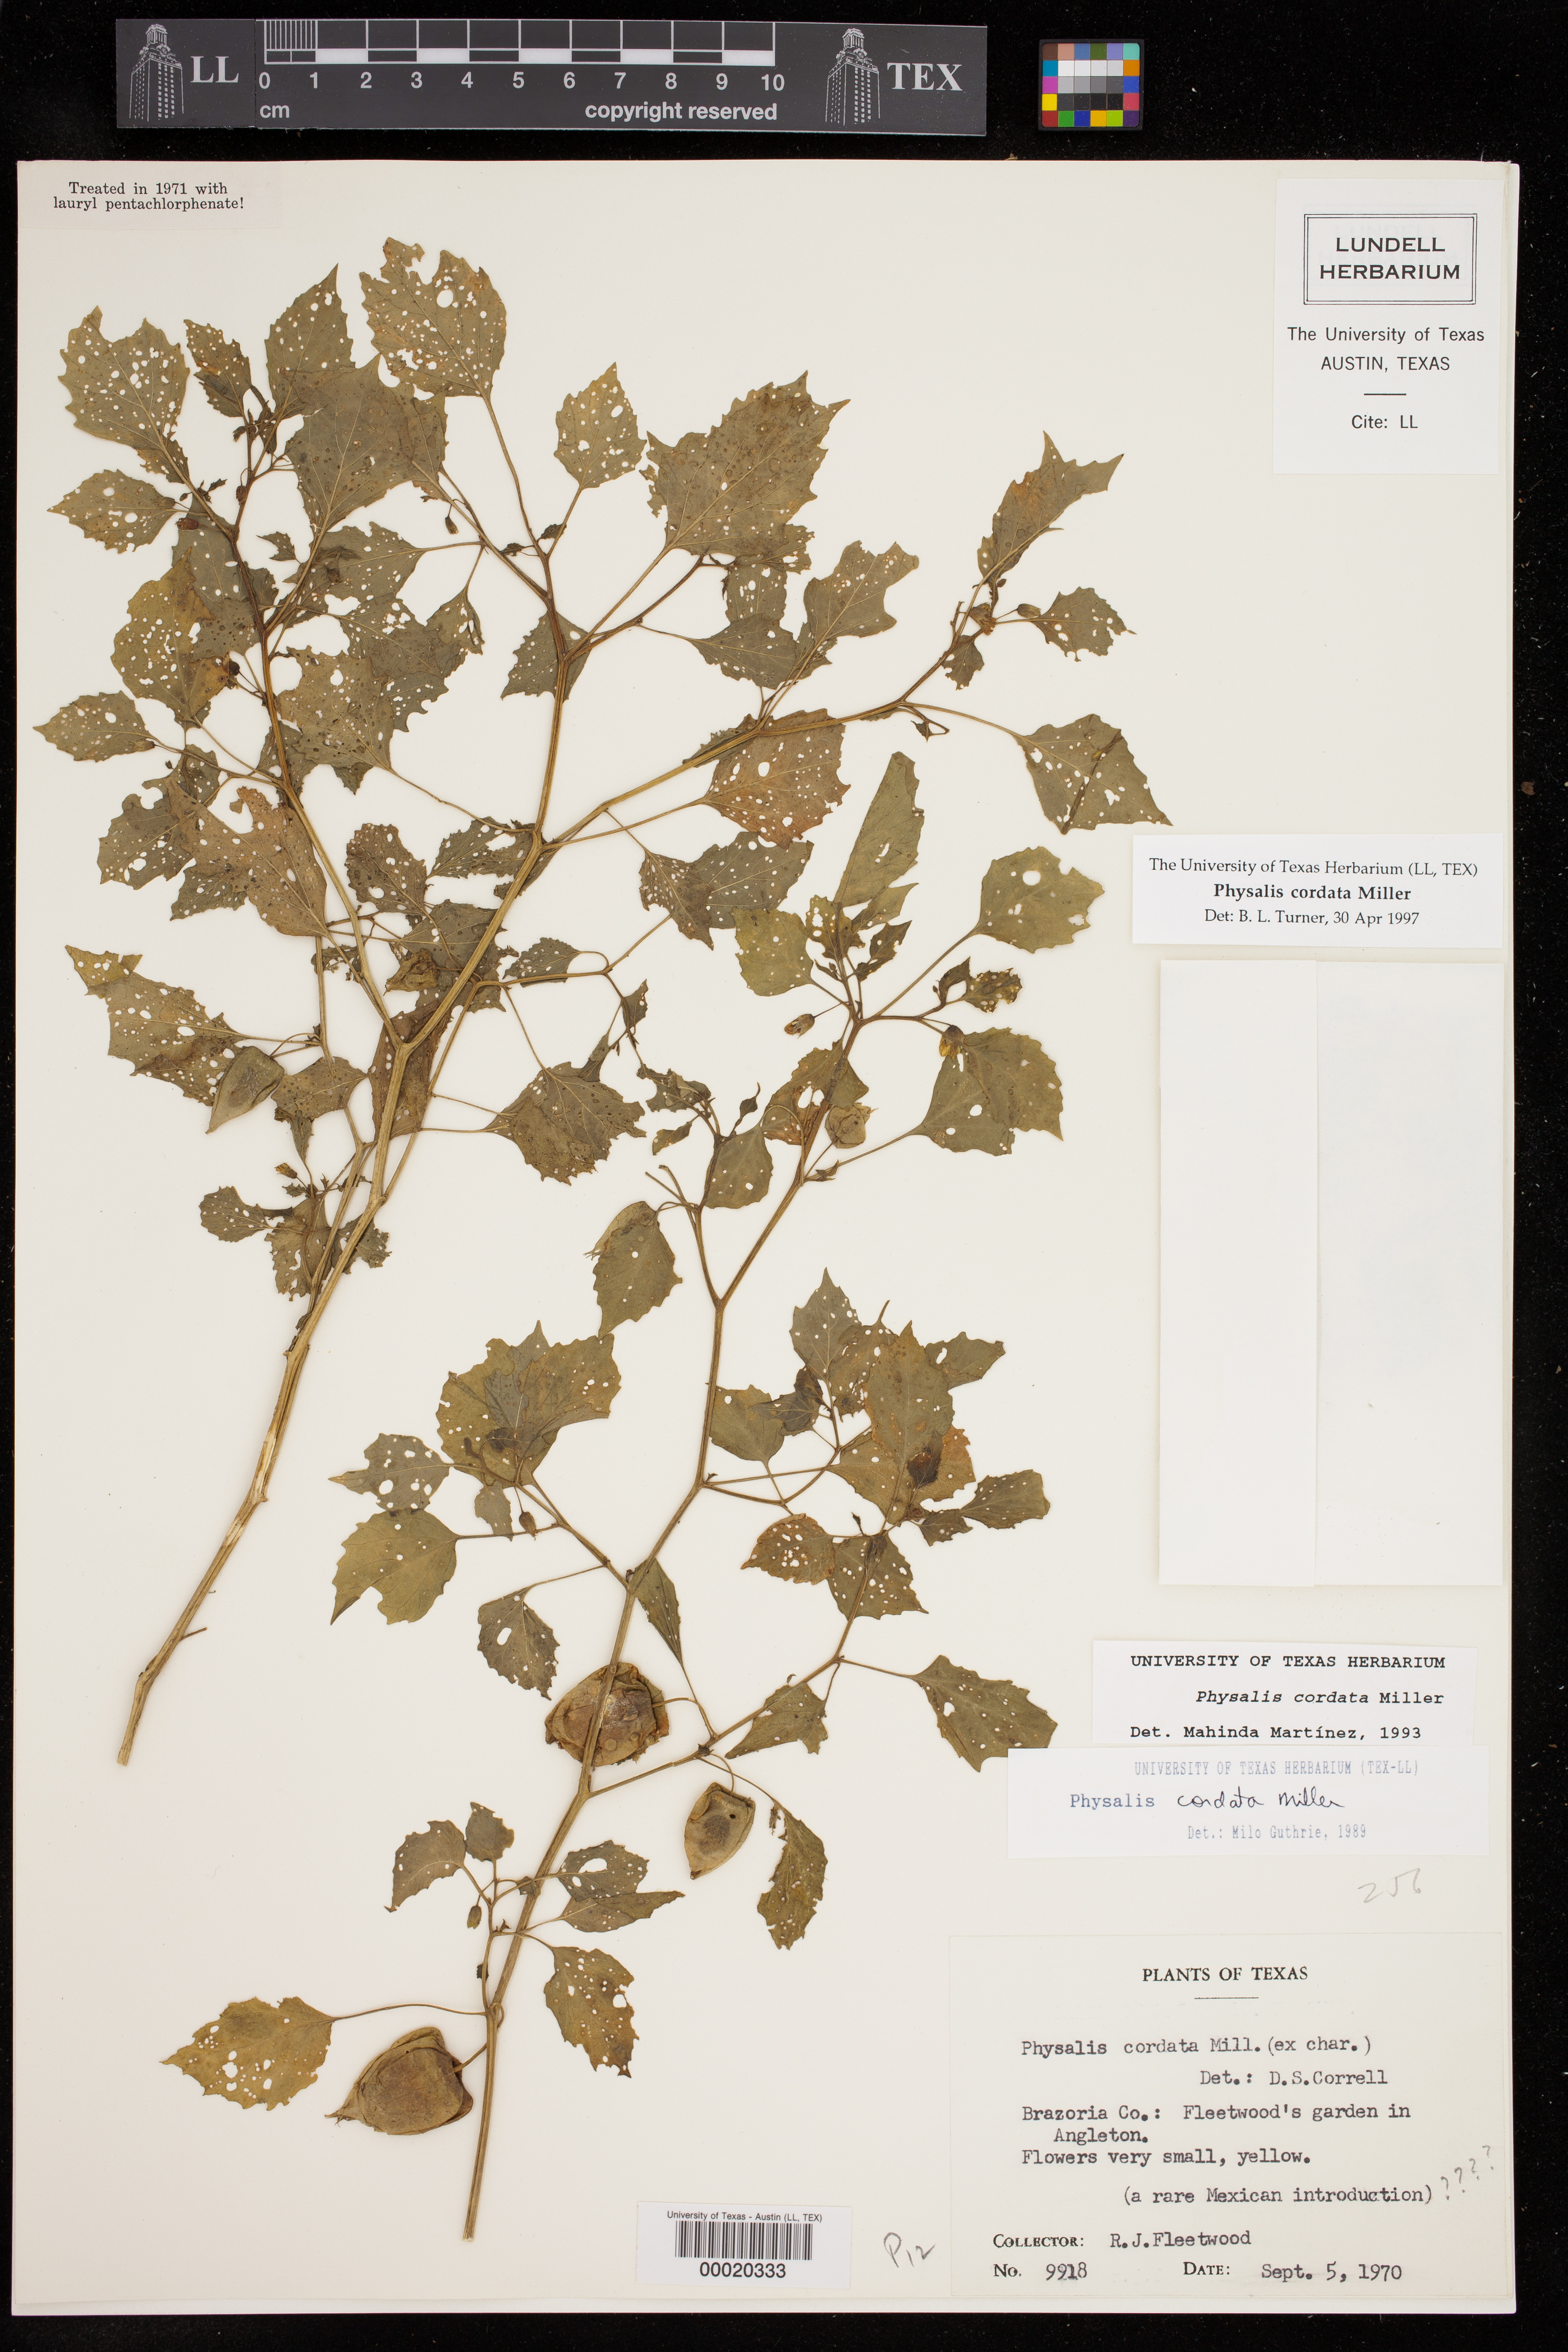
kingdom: Plantae
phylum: Tracheophyta
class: Magnoliopsida
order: Solanales
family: Solanaceae
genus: Physalis
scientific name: Physalis cordata
